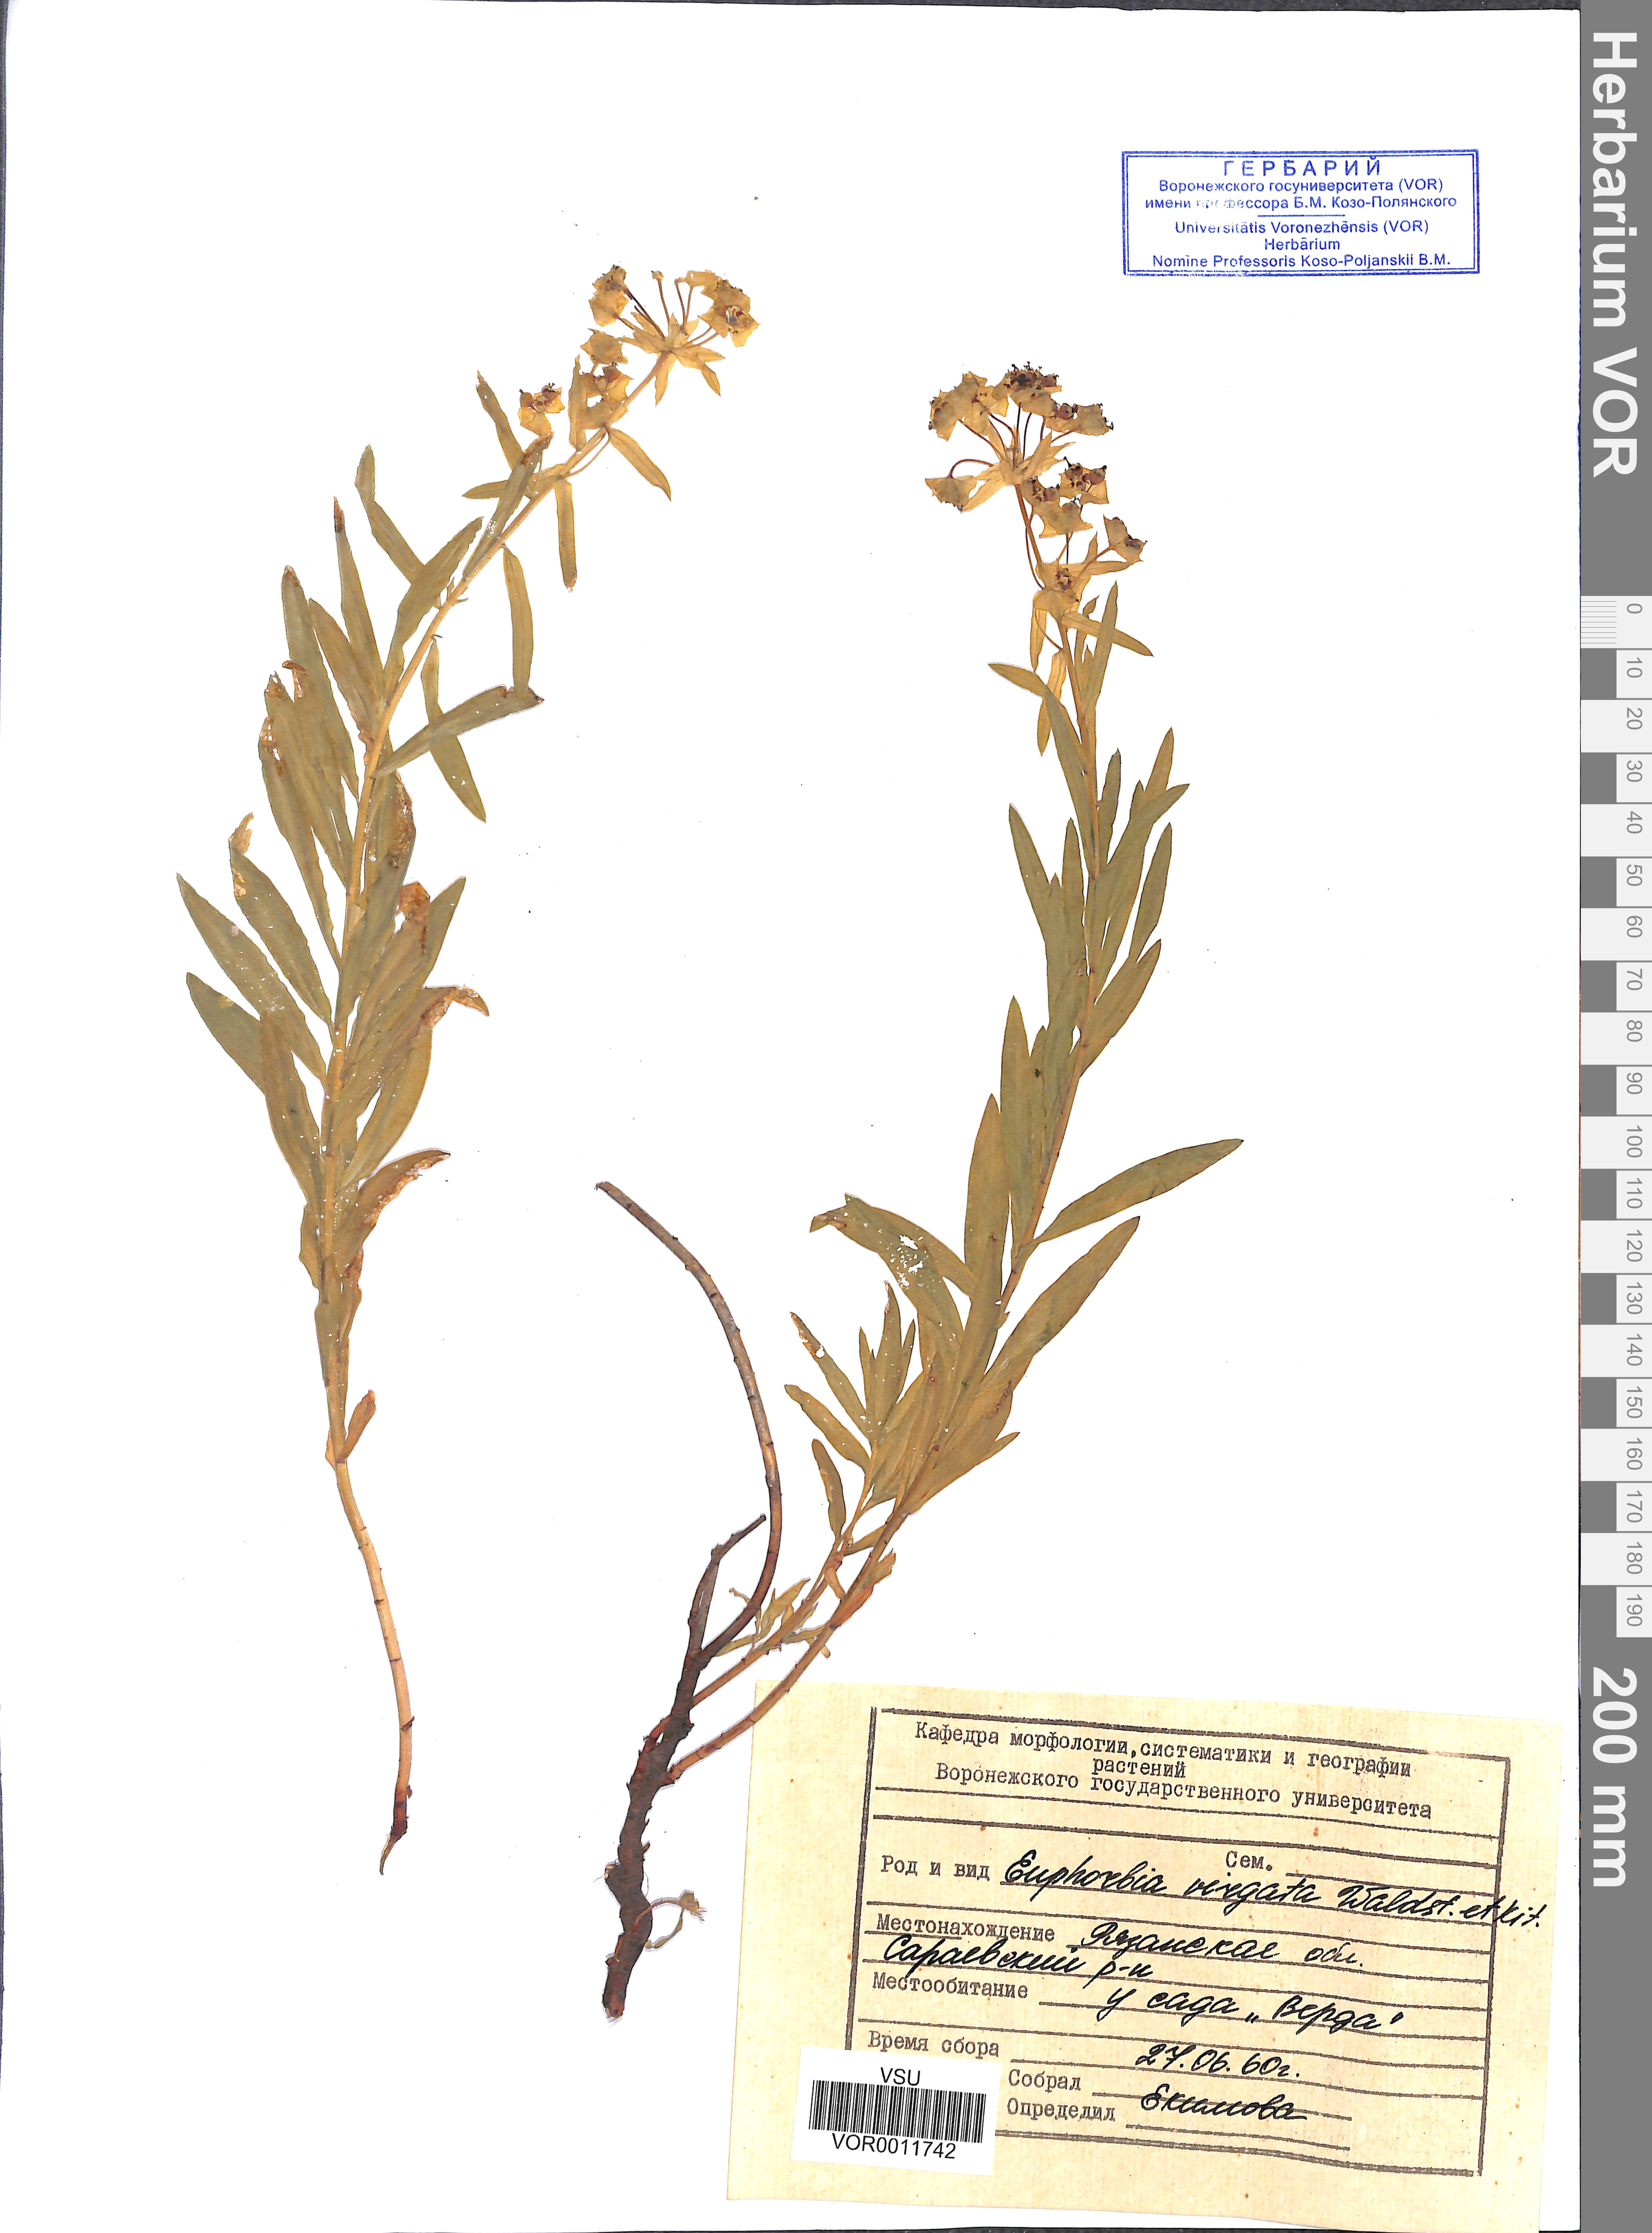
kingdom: Plantae
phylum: Tracheophyta
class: Magnoliopsida
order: Malpighiales
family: Euphorbiaceae
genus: Euphorbia
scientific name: Euphorbia virgata
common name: Leafy spurge
